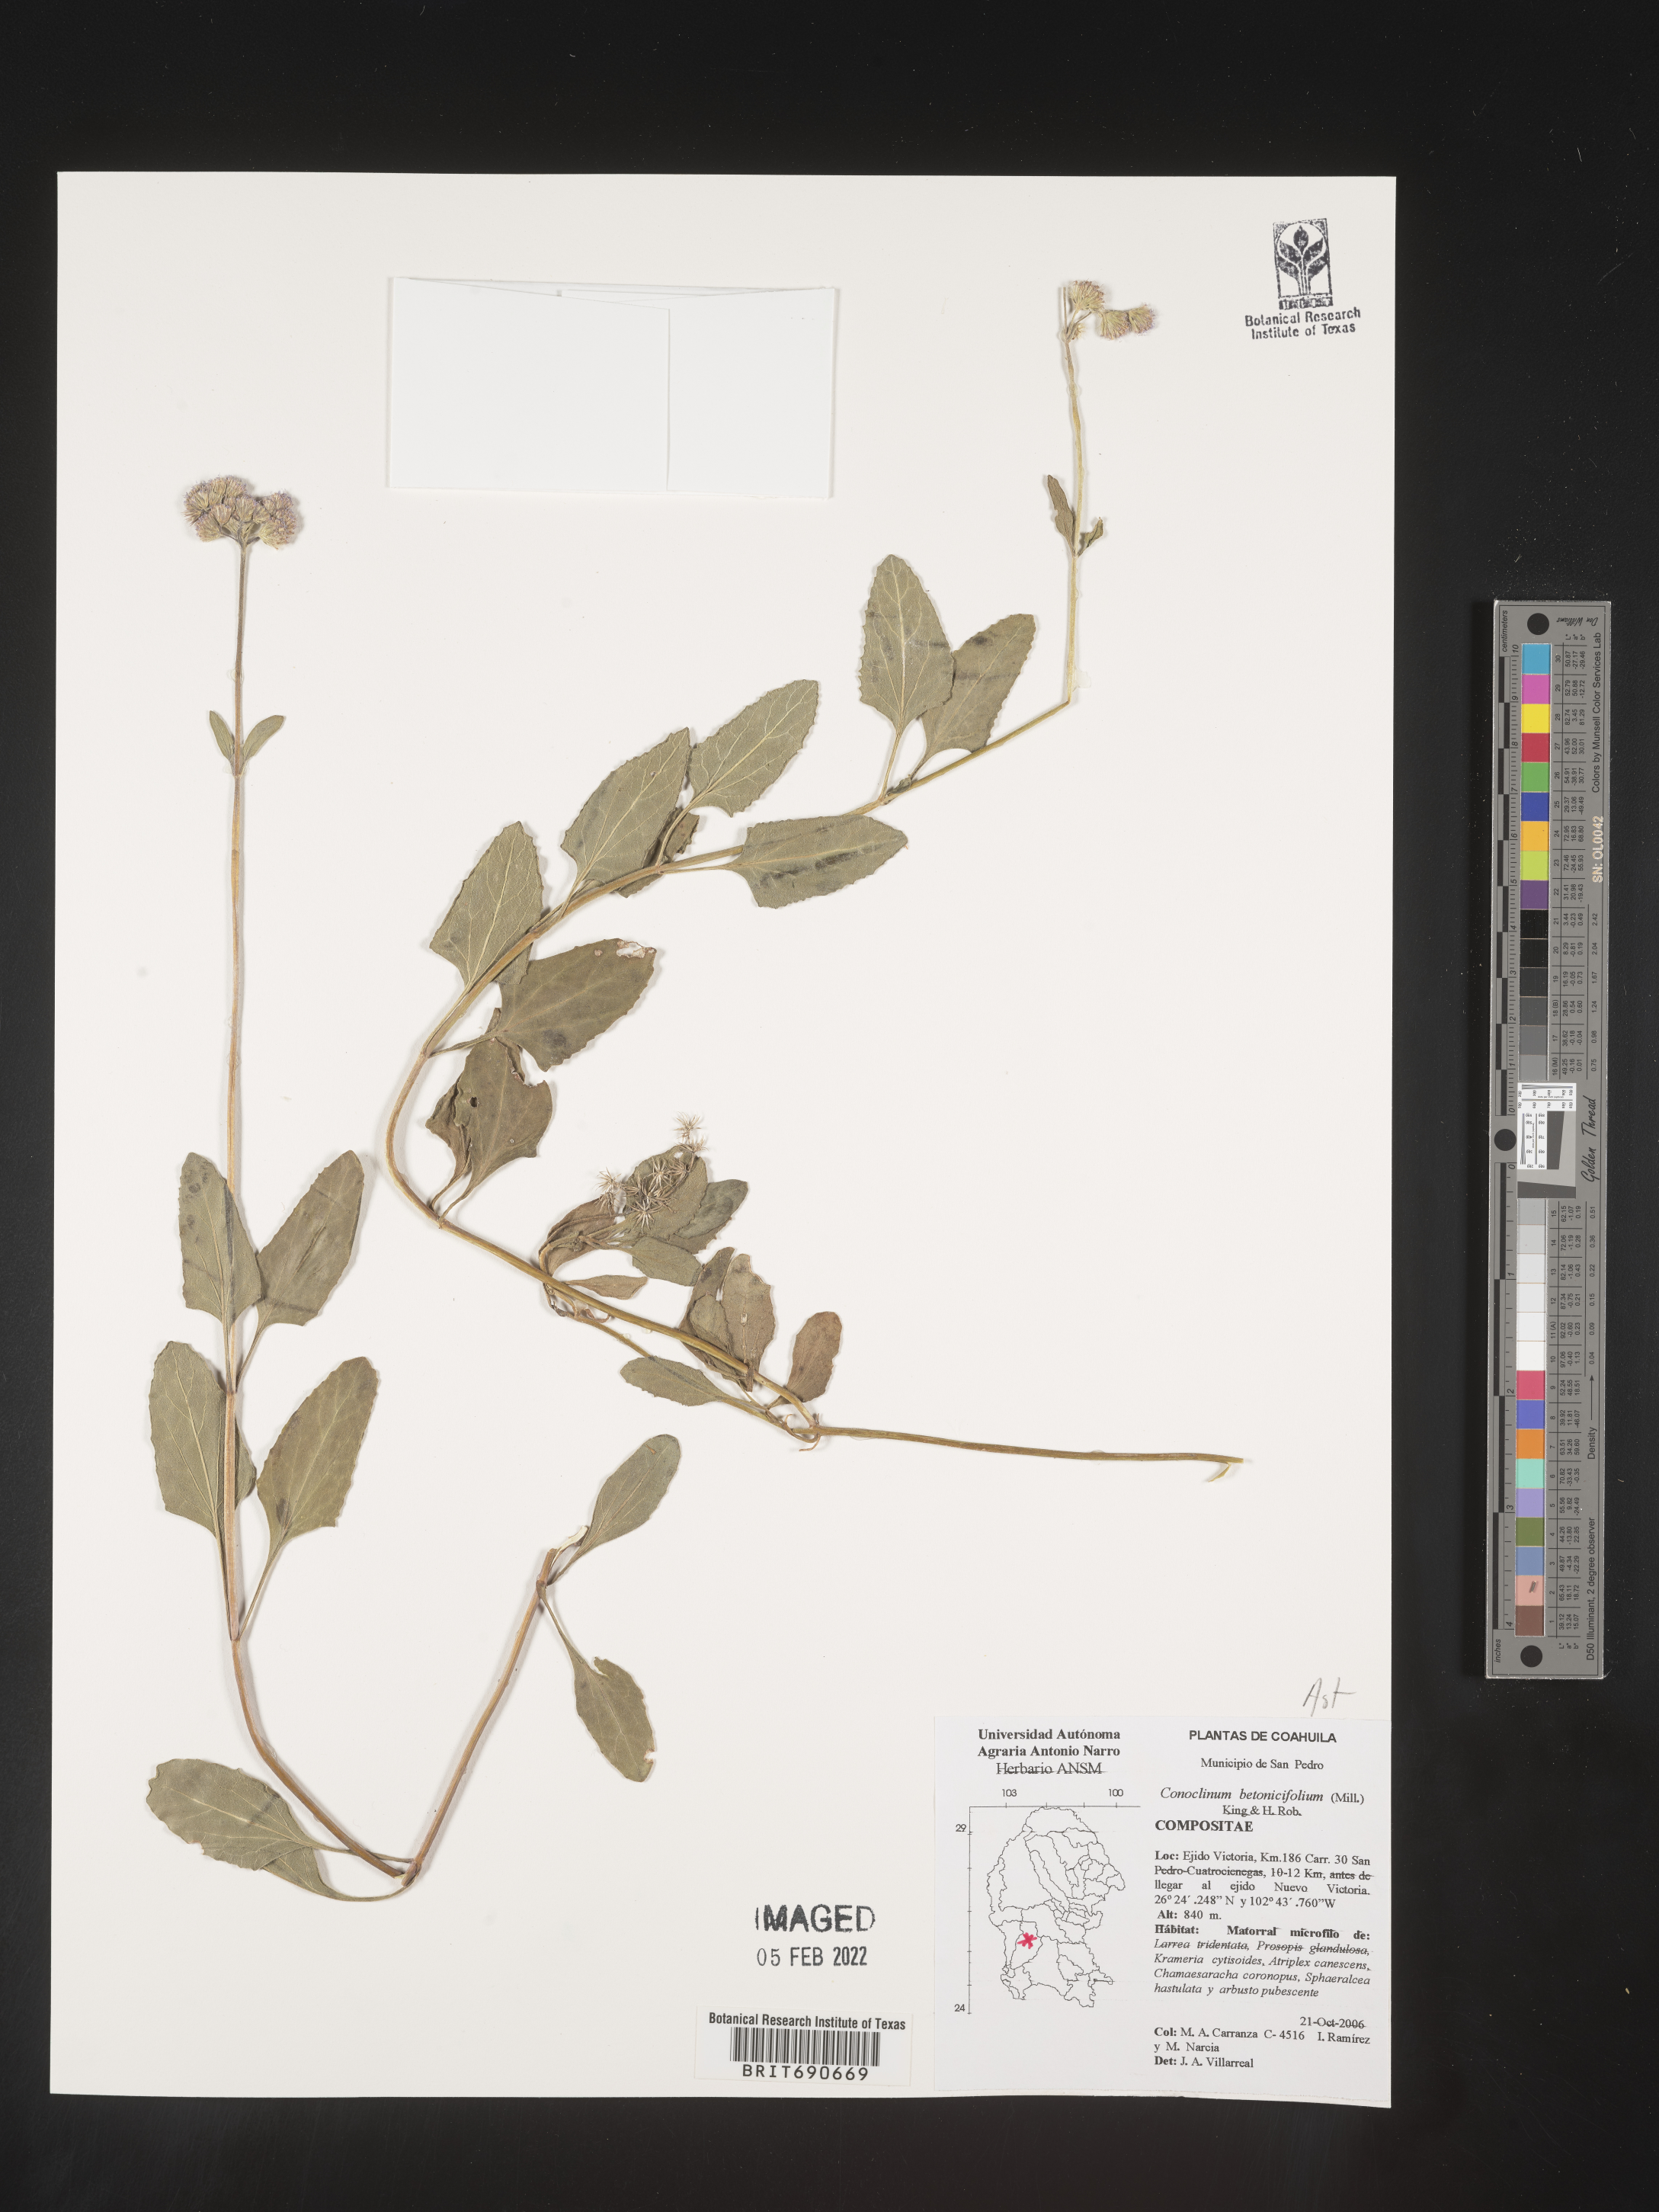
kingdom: Plantae
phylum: Tracheophyta
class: Magnoliopsida
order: Asterales
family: Asteraceae
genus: Conoclinium
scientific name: Conoclinium
